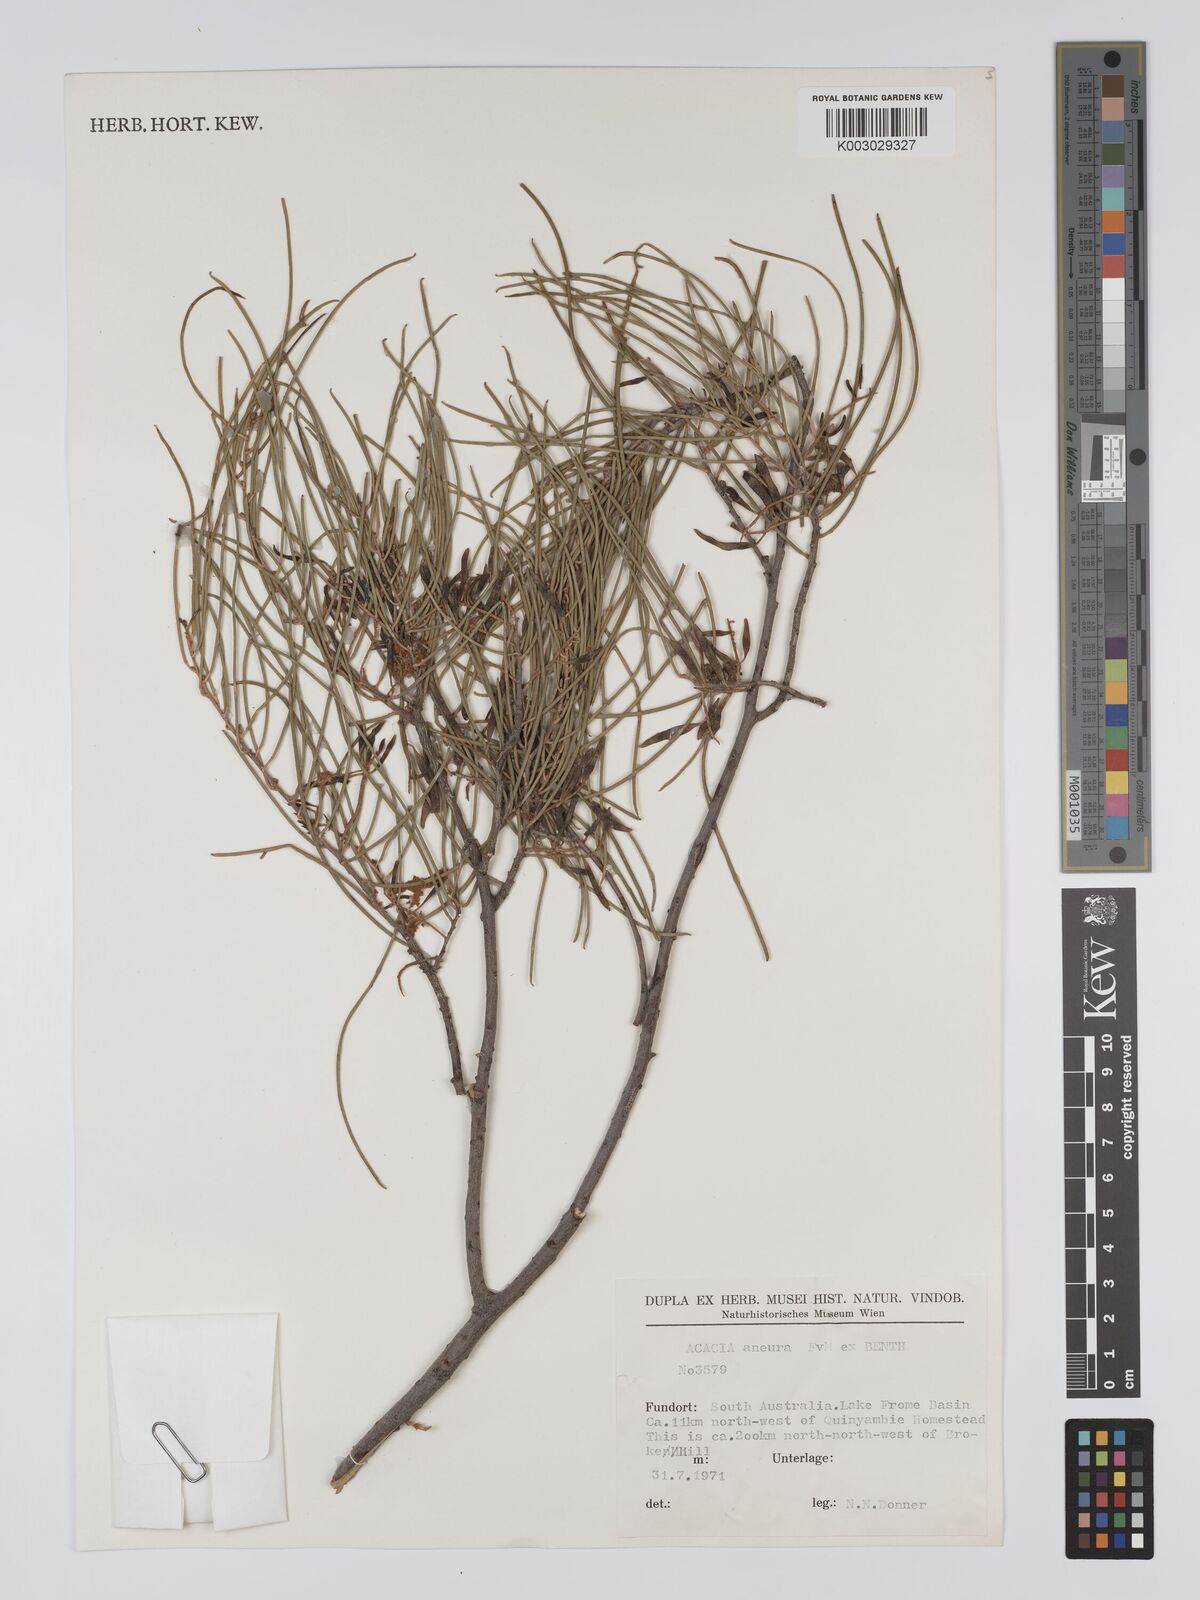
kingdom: Plantae
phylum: Tracheophyta
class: Magnoliopsida
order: Fabales
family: Fabaceae
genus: Acacia
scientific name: Acacia aneura
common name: Mulga
